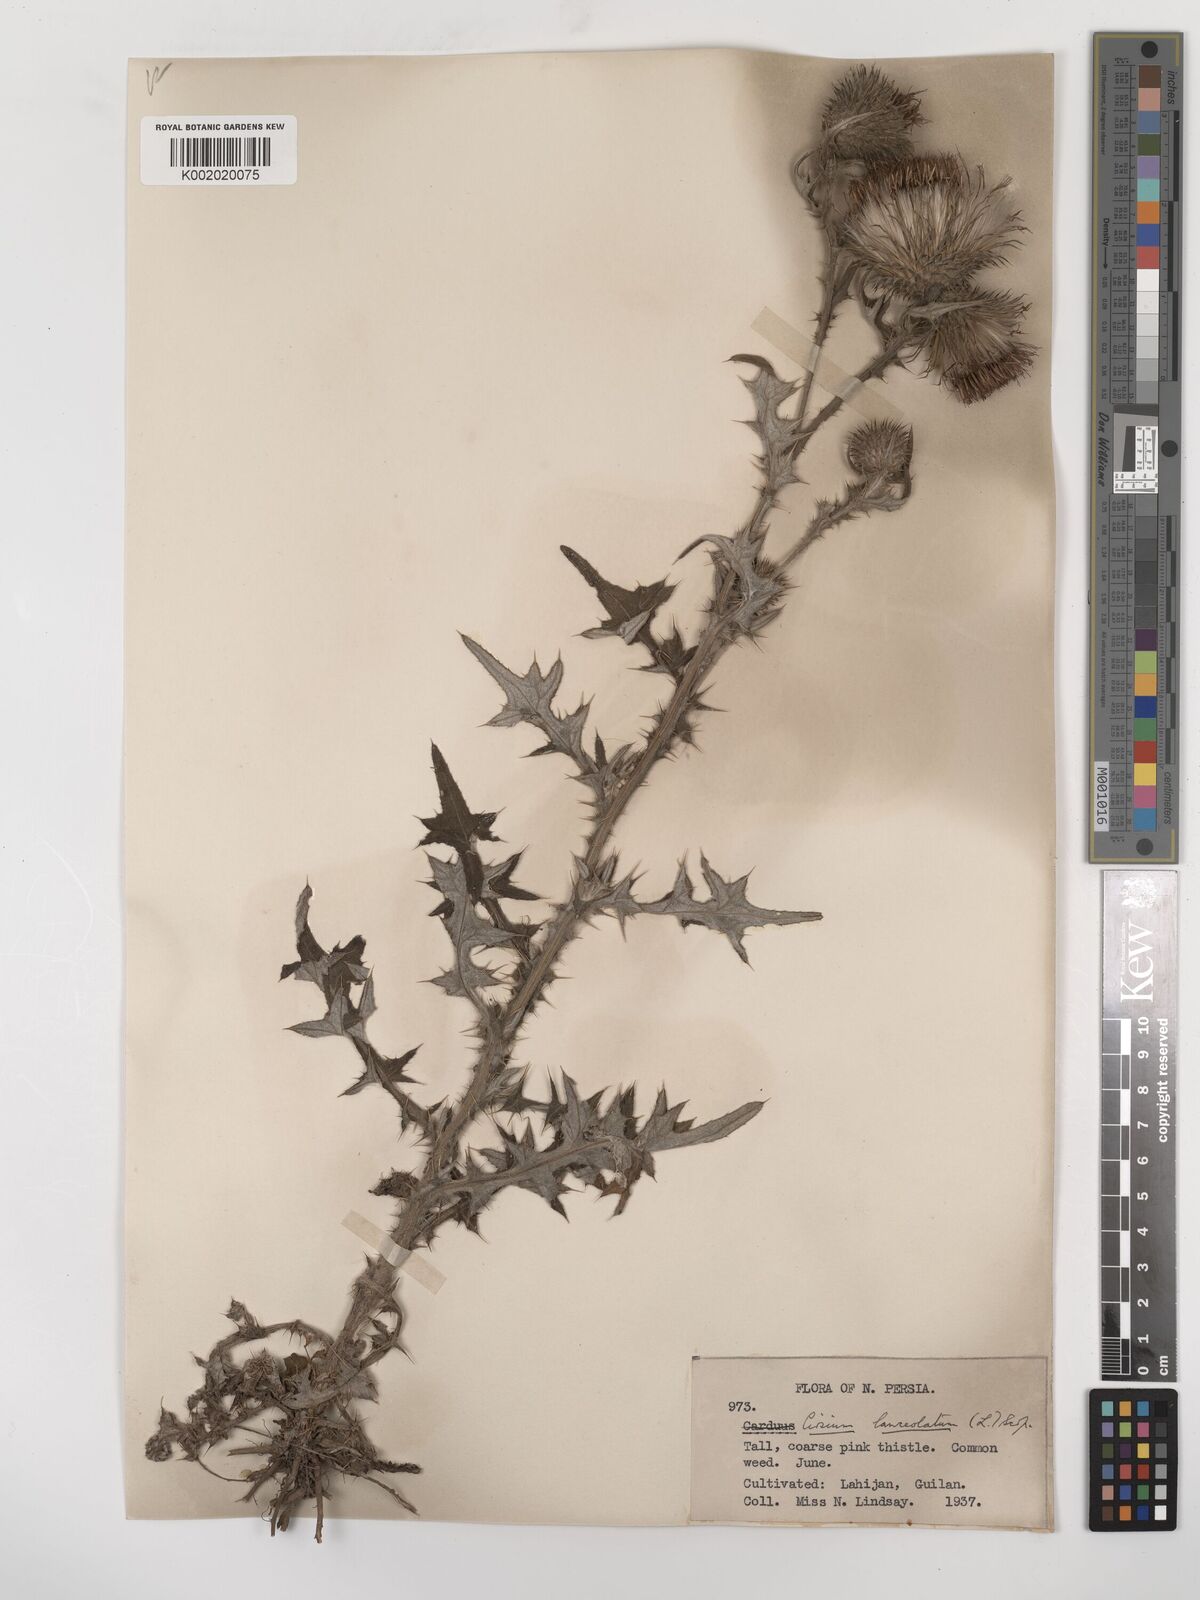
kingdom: Plantae
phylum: Tracheophyta
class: Magnoliopsida
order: Asterales
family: Asteraceae
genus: Cirsium
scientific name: Cirsium vulgare
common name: Bull thistle
